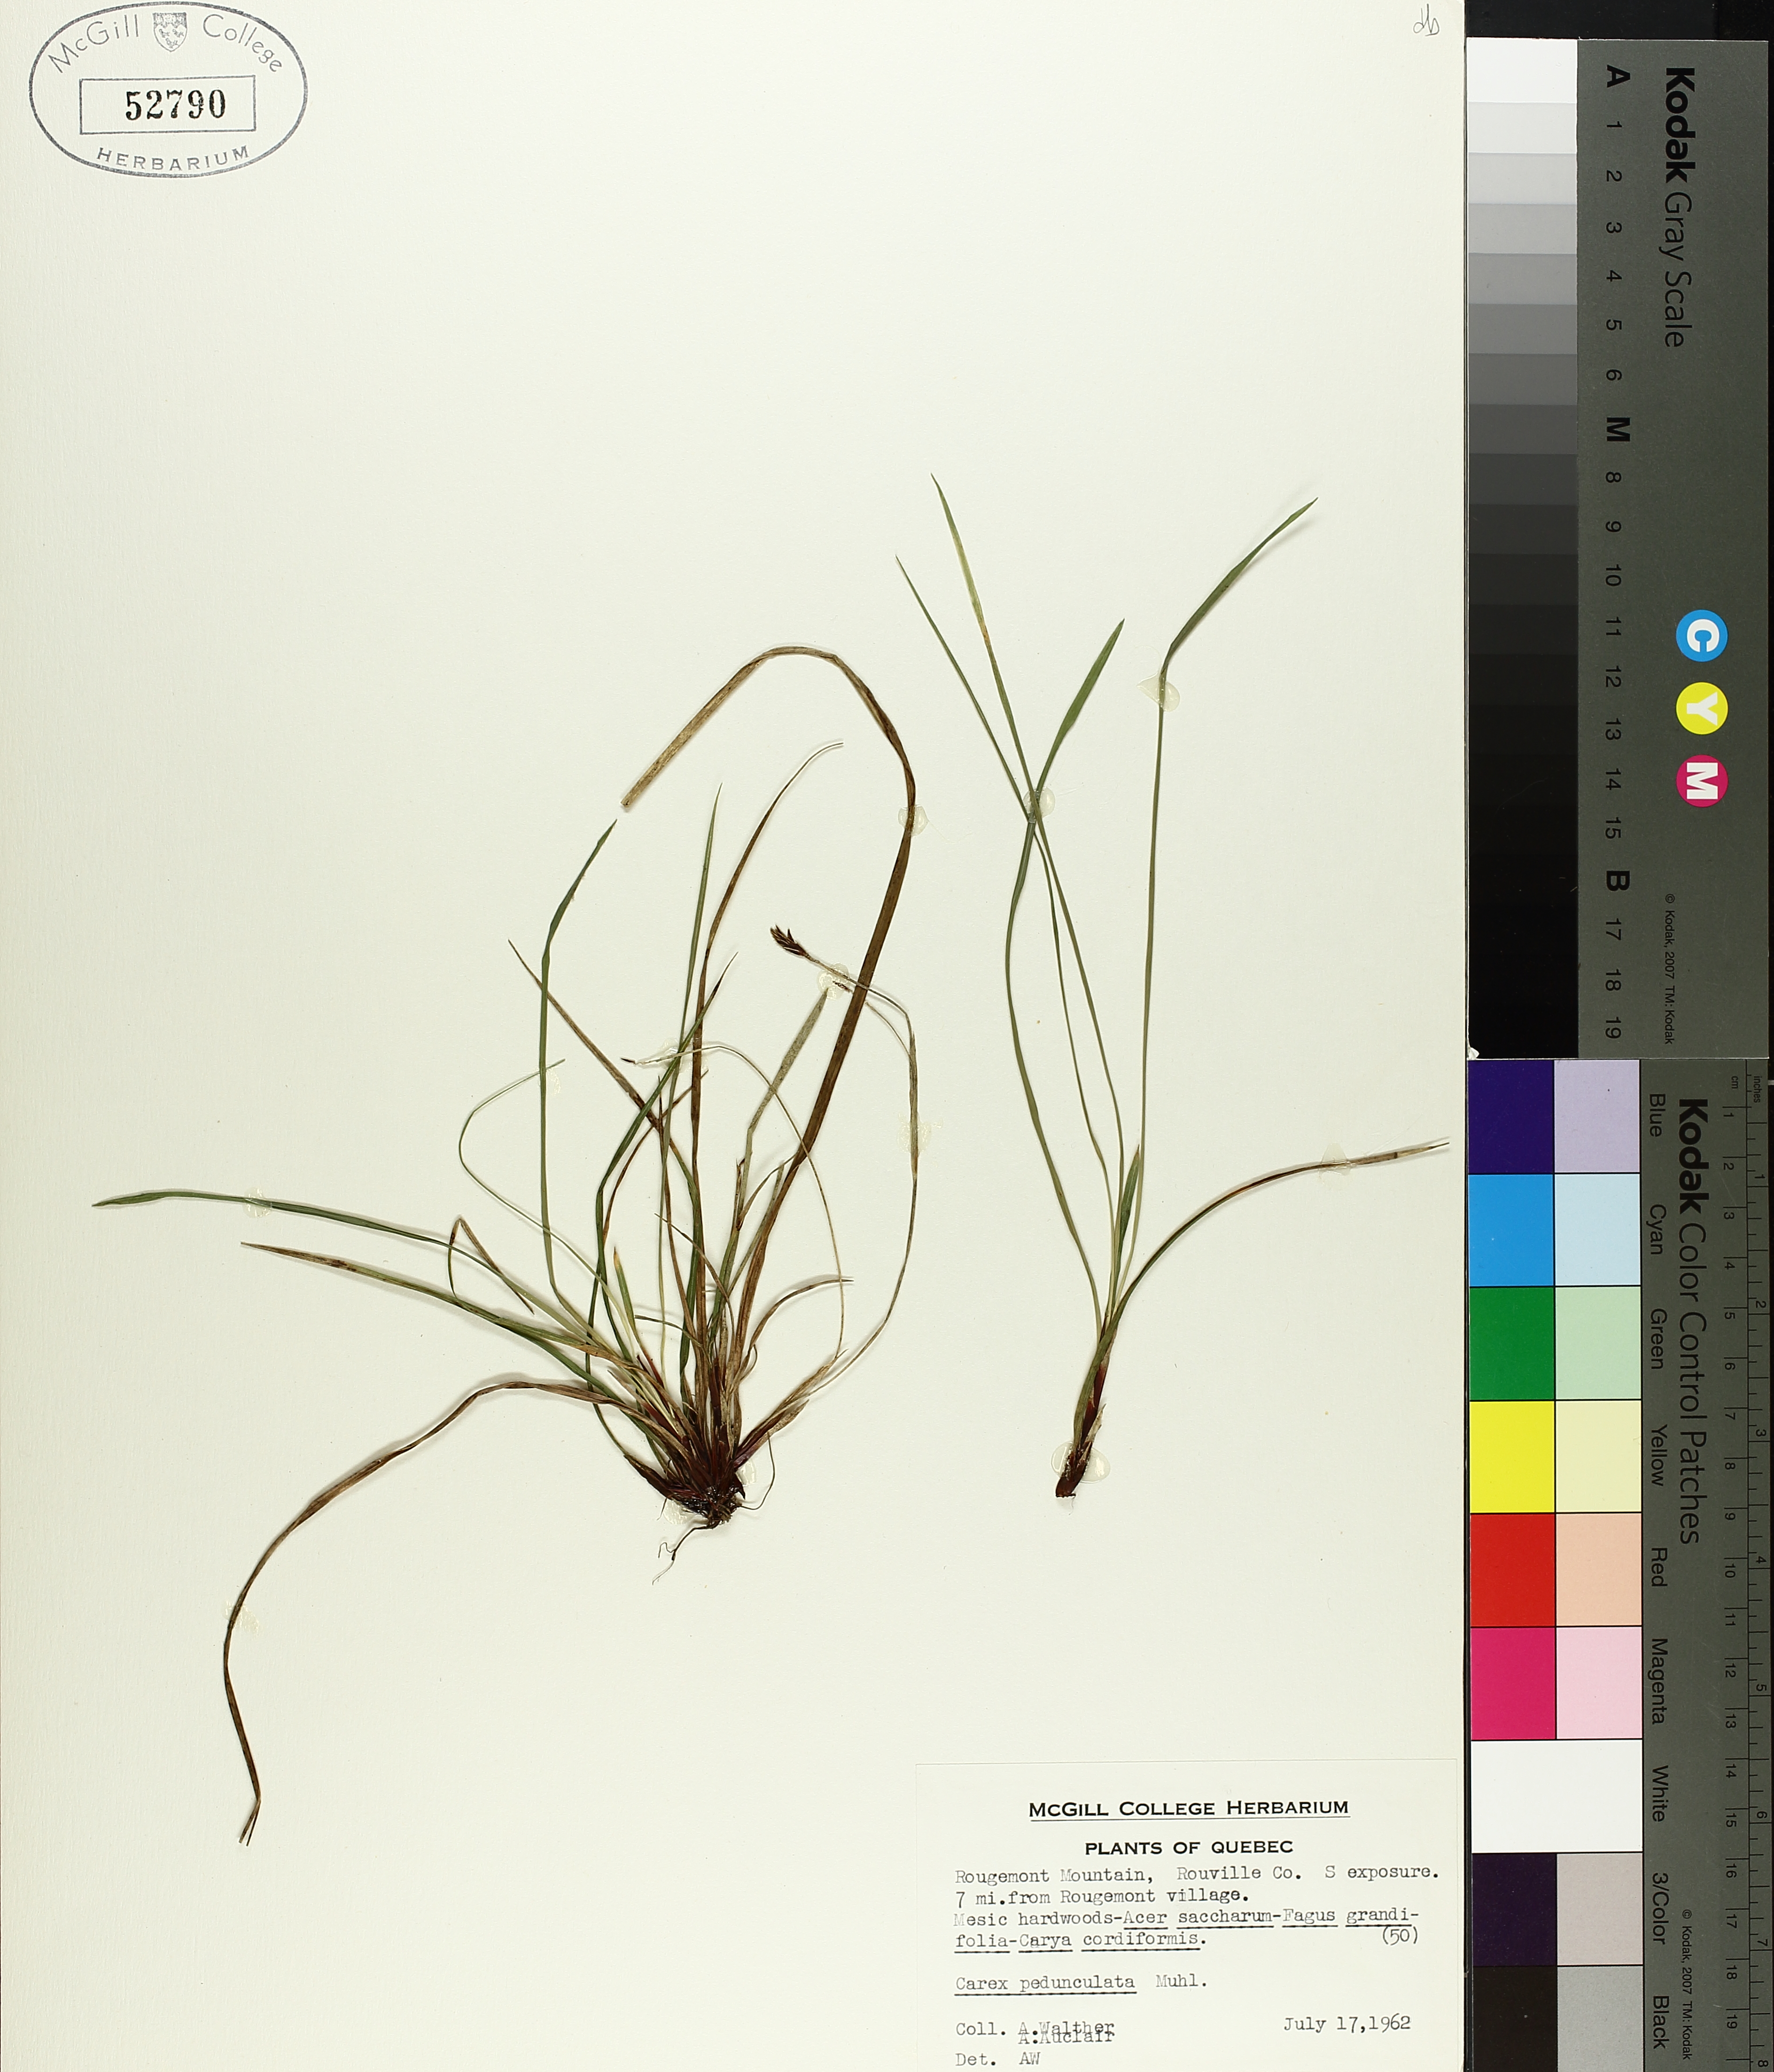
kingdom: Plantae
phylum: Tracheophyta
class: Liliopsida
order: Poales
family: Cyperaceae
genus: Carex
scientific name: Carex pedunculata
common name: Pedunculate sedge
